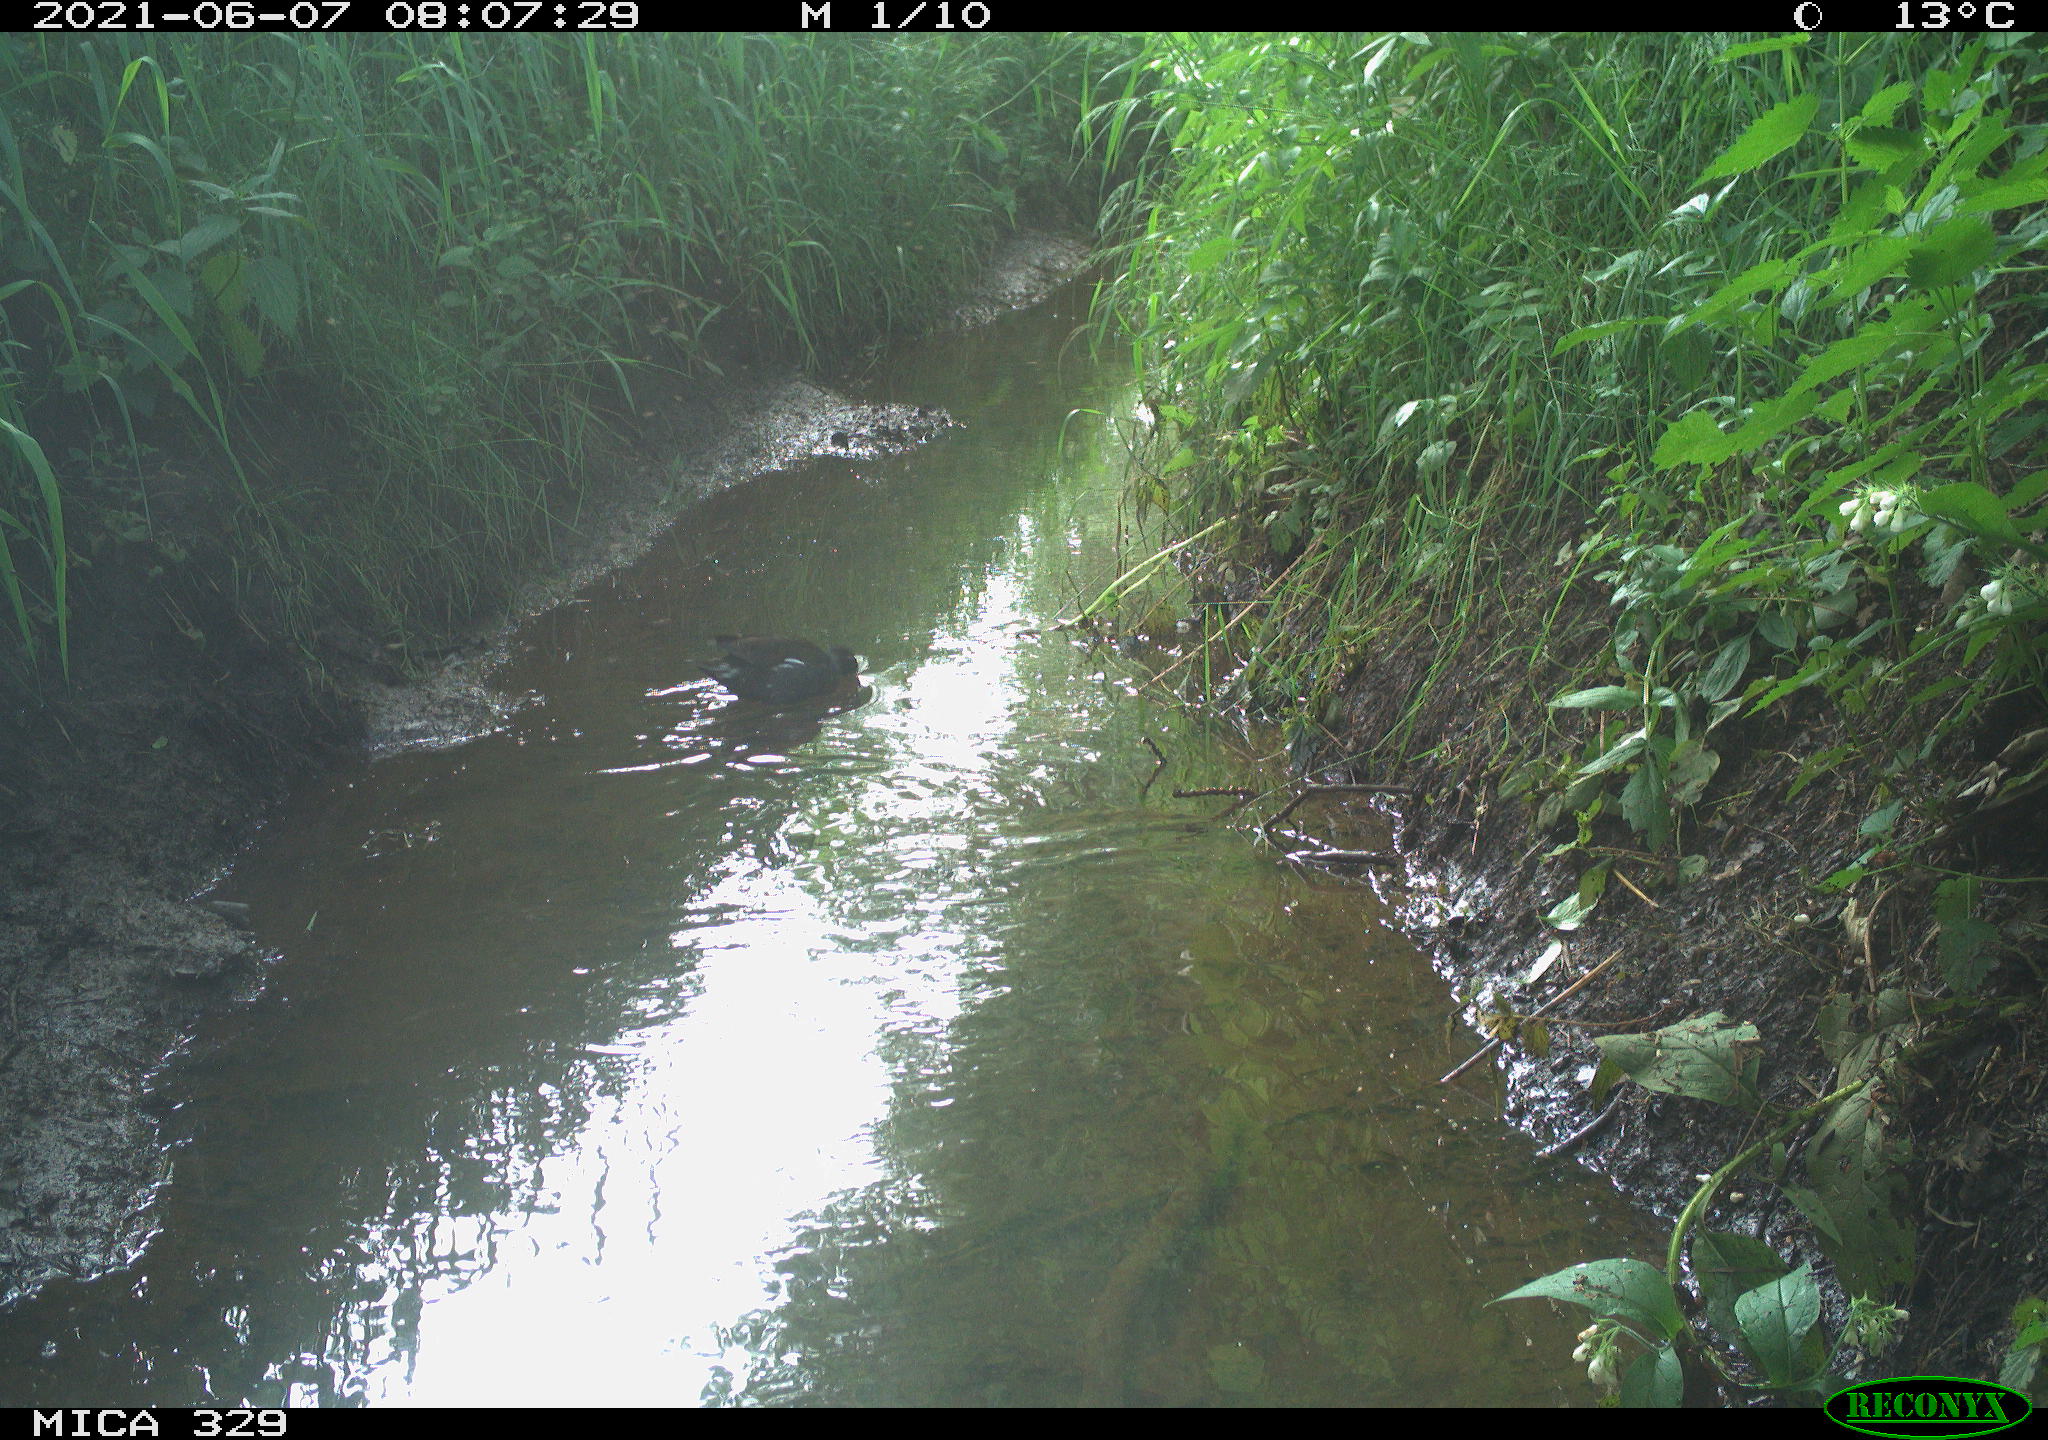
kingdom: Animalia
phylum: Chordata
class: Aves
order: Gruiformes
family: Rallidae
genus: Gallinula
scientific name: Gallinula chloropus
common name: Common moorhen
